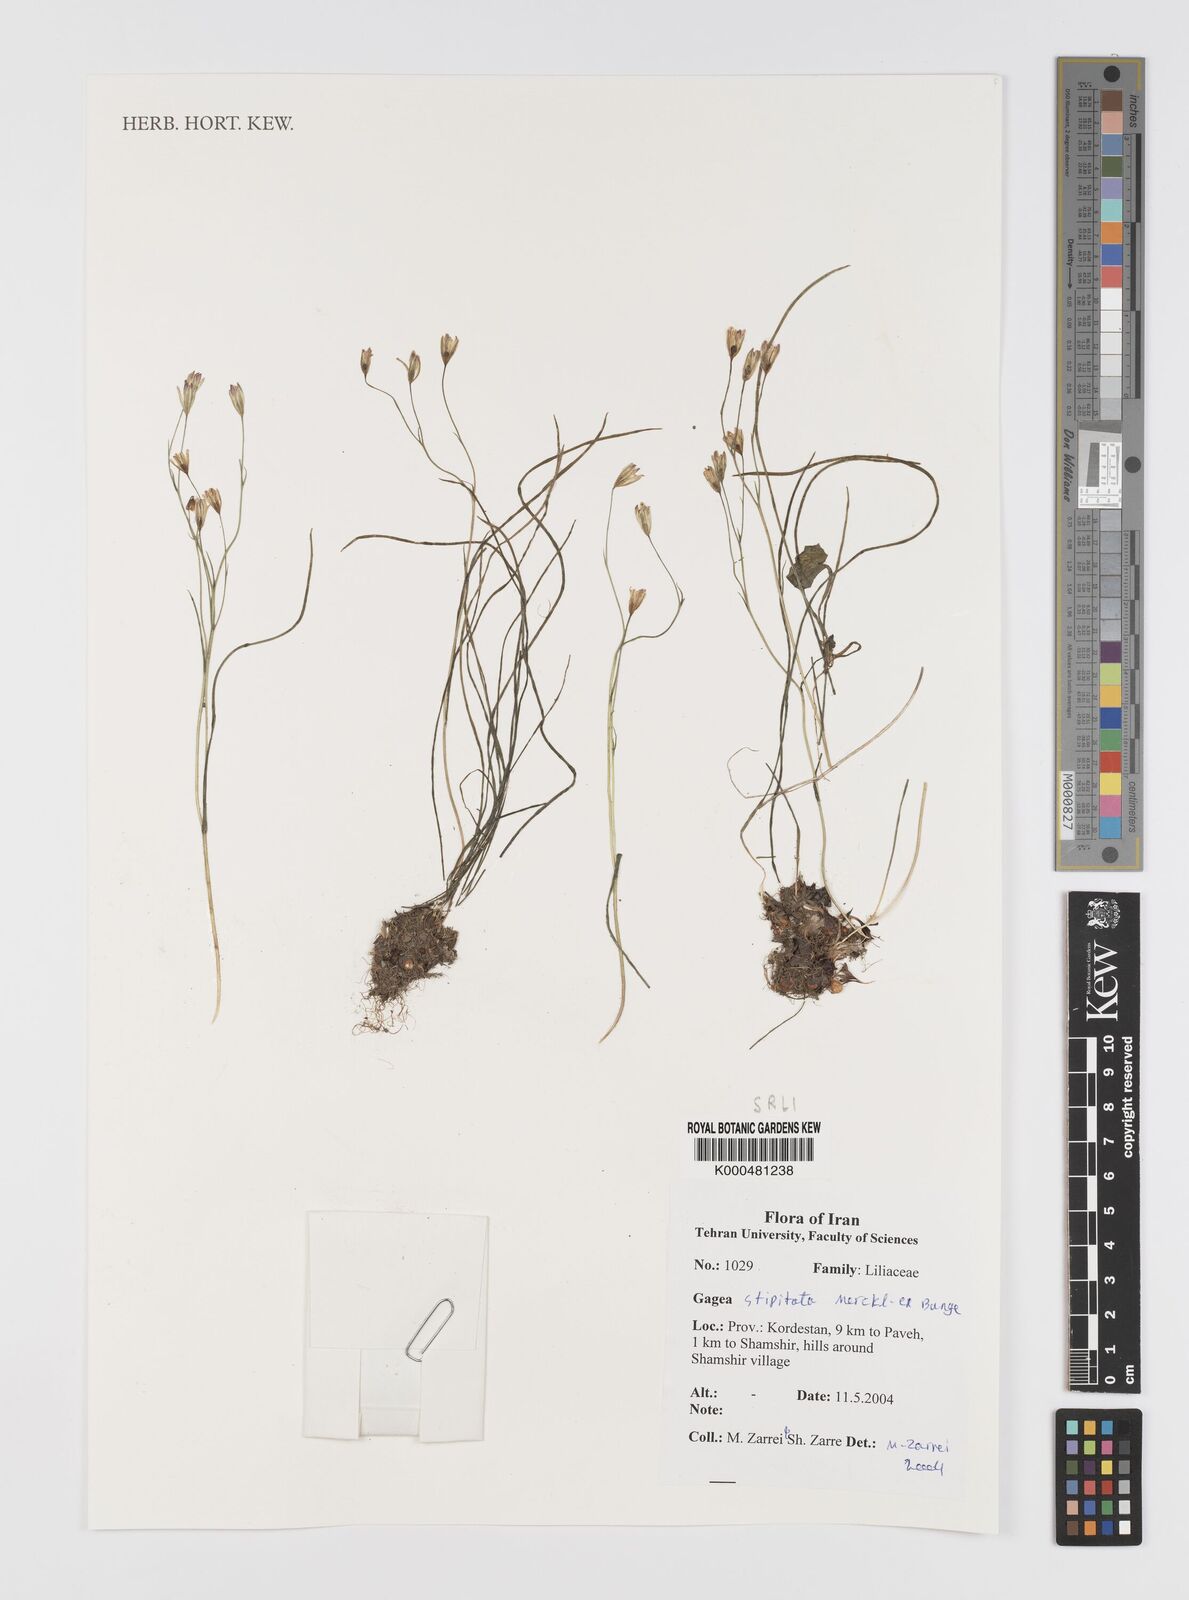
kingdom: Plantae
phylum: Tracheophyta
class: Liliopsida
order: Liliales
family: Liliaceae
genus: Gagea
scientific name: Gagea kunawurensis
